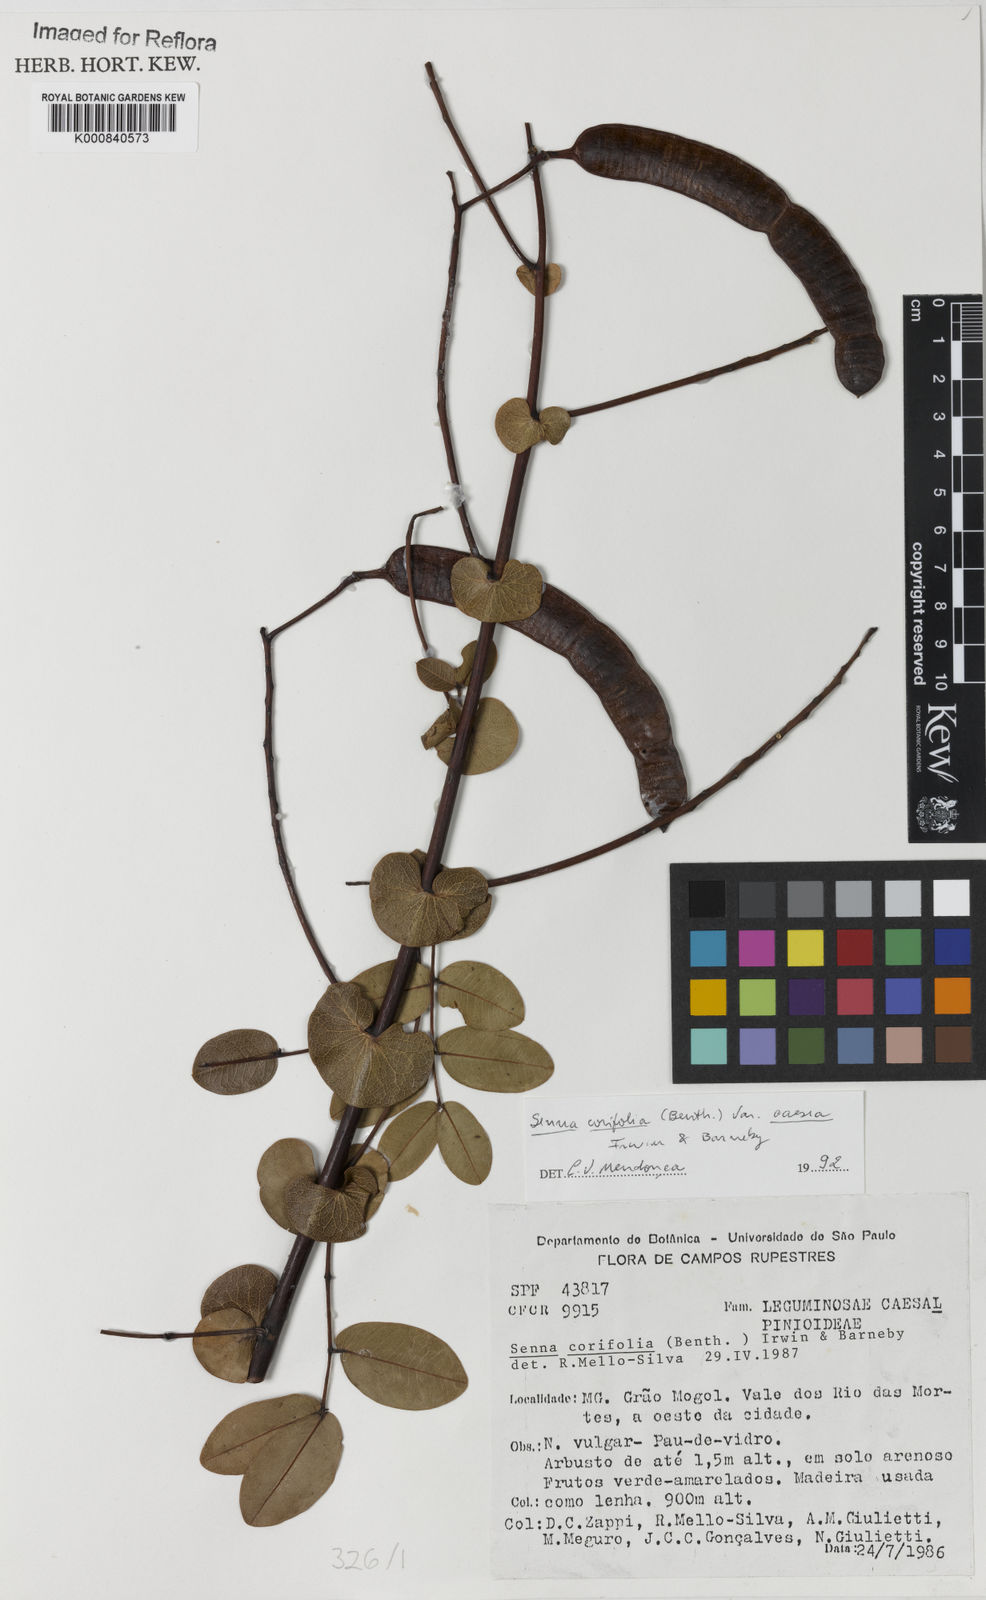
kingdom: Plantae
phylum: Tracheophyta
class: Magnoliopsida
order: Fabales
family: Fabaceae
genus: Senna
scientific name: Senna corifolia
